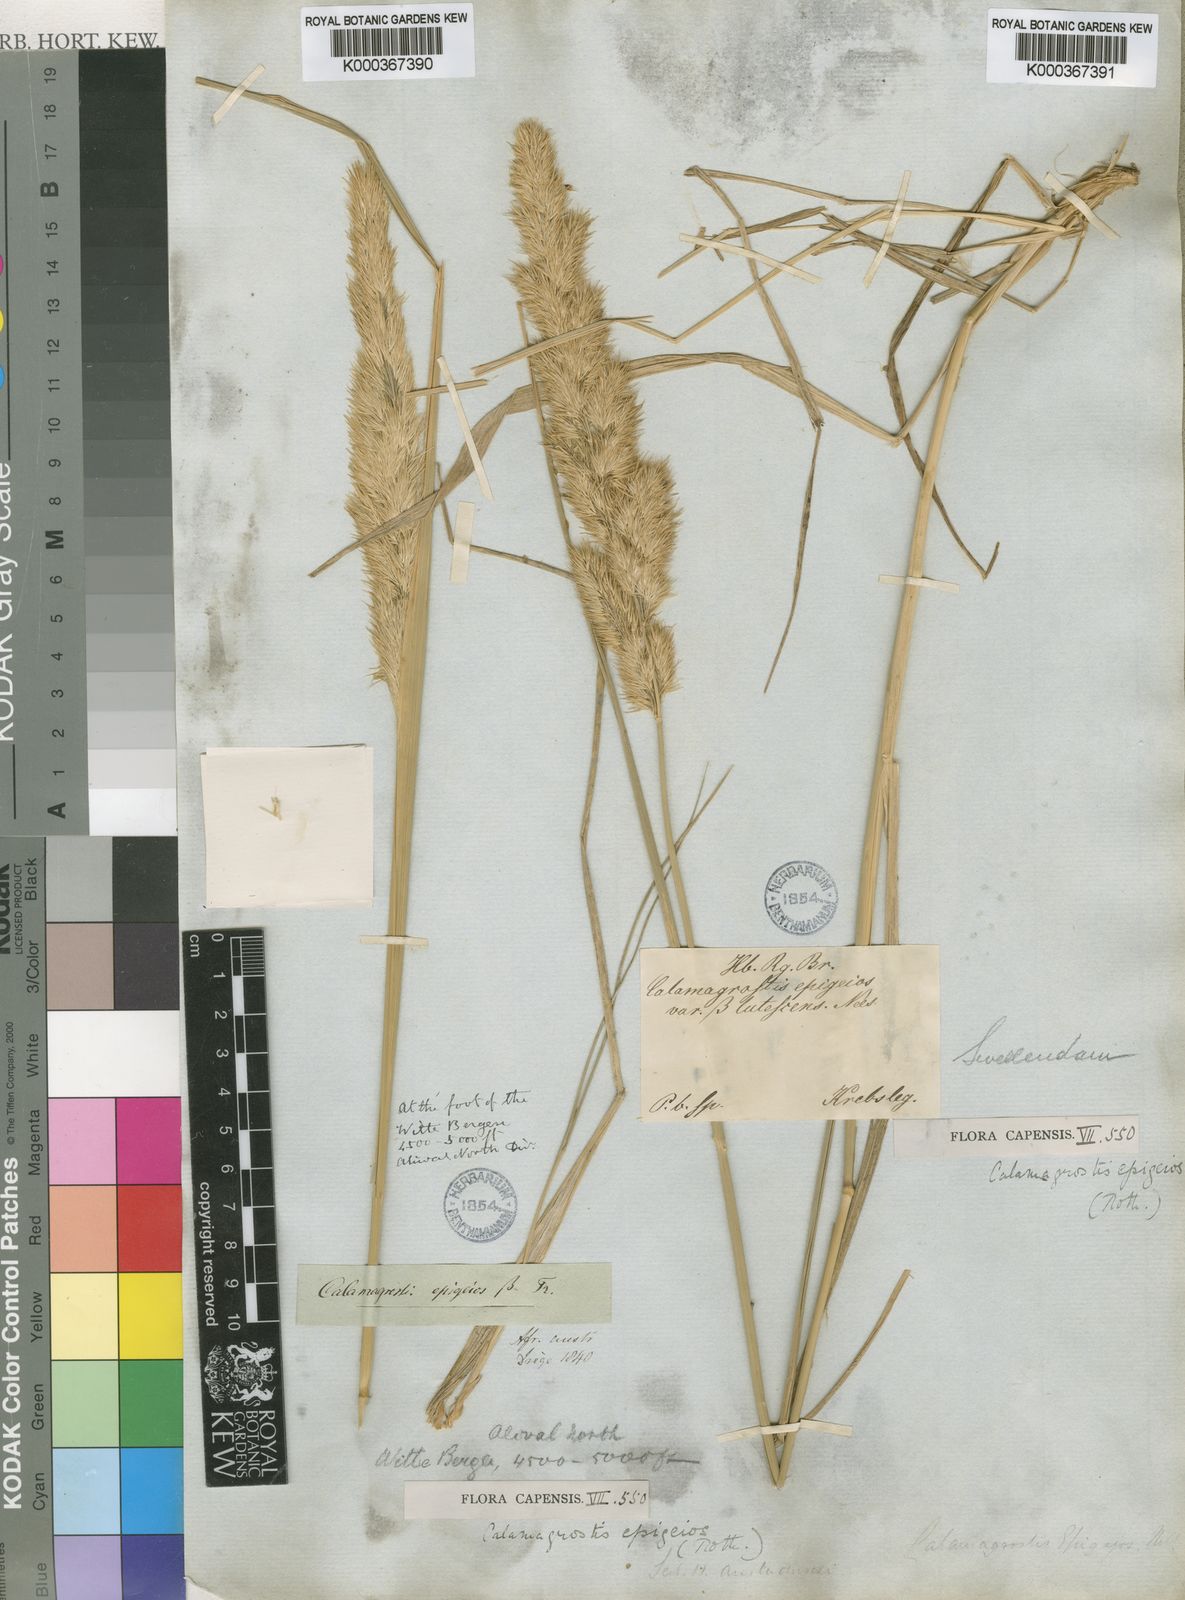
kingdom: Plantae
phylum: Tracheophyta
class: Liliopsida
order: Poales
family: Poaceae
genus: Calamagrostis
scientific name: Calamagrostis epigejos
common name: Wood small-reed
